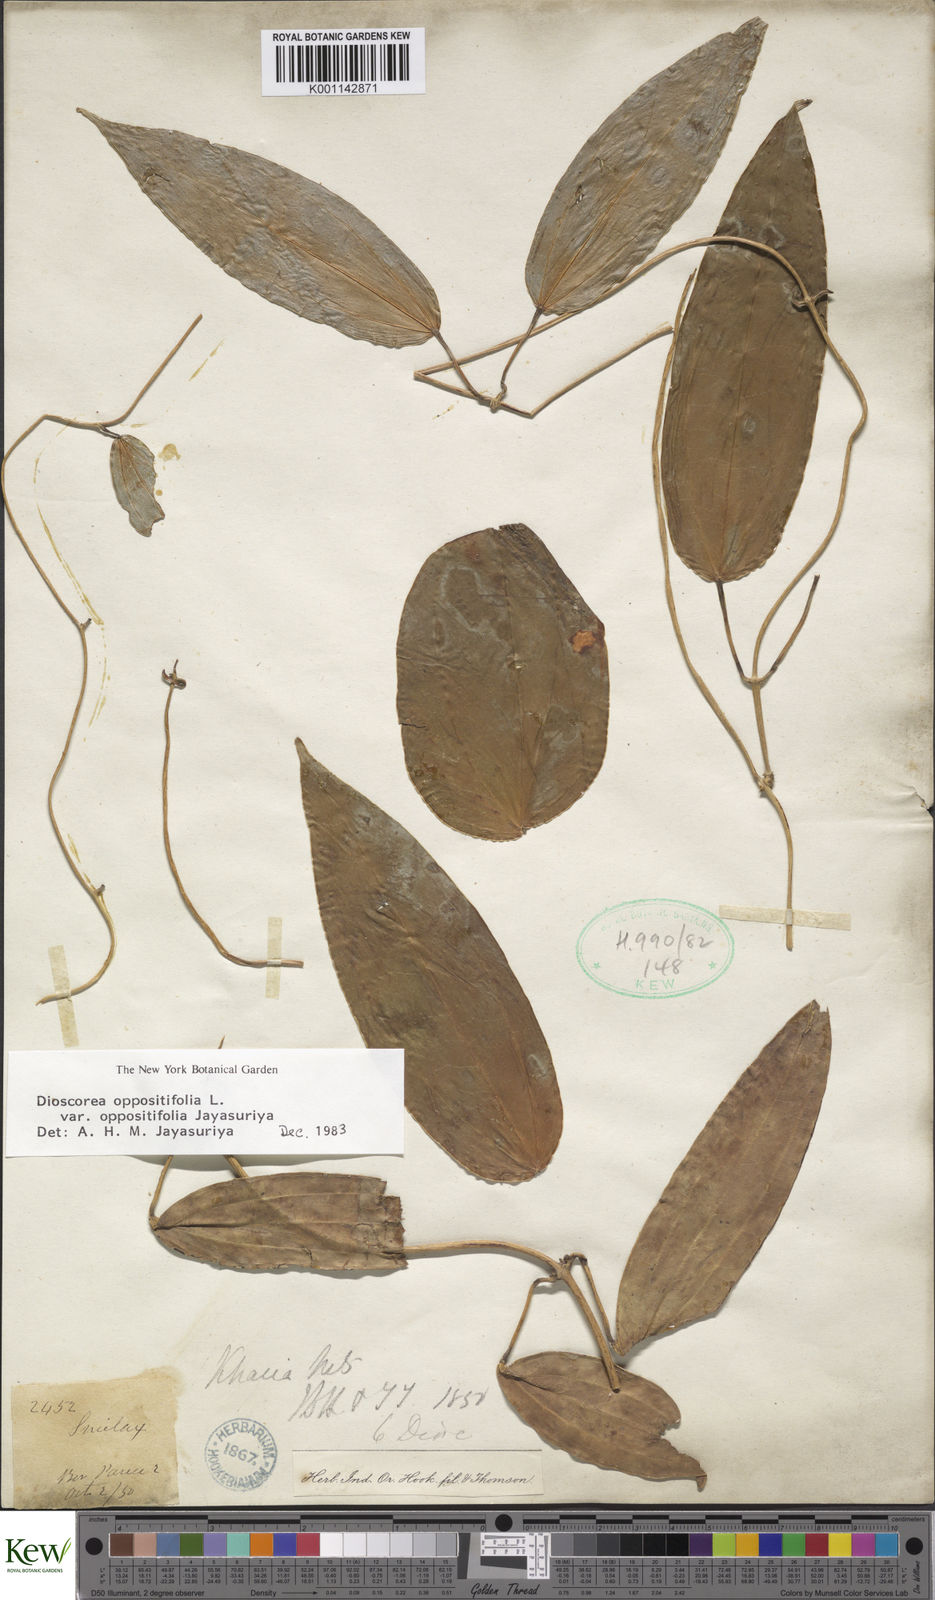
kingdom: Plantae
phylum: Tracheophyta
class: Liliopsida
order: Dioscoreales
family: Dioscoreaceae
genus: Dioscorea
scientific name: Dioscorea oppositifolia
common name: Chinese yam
